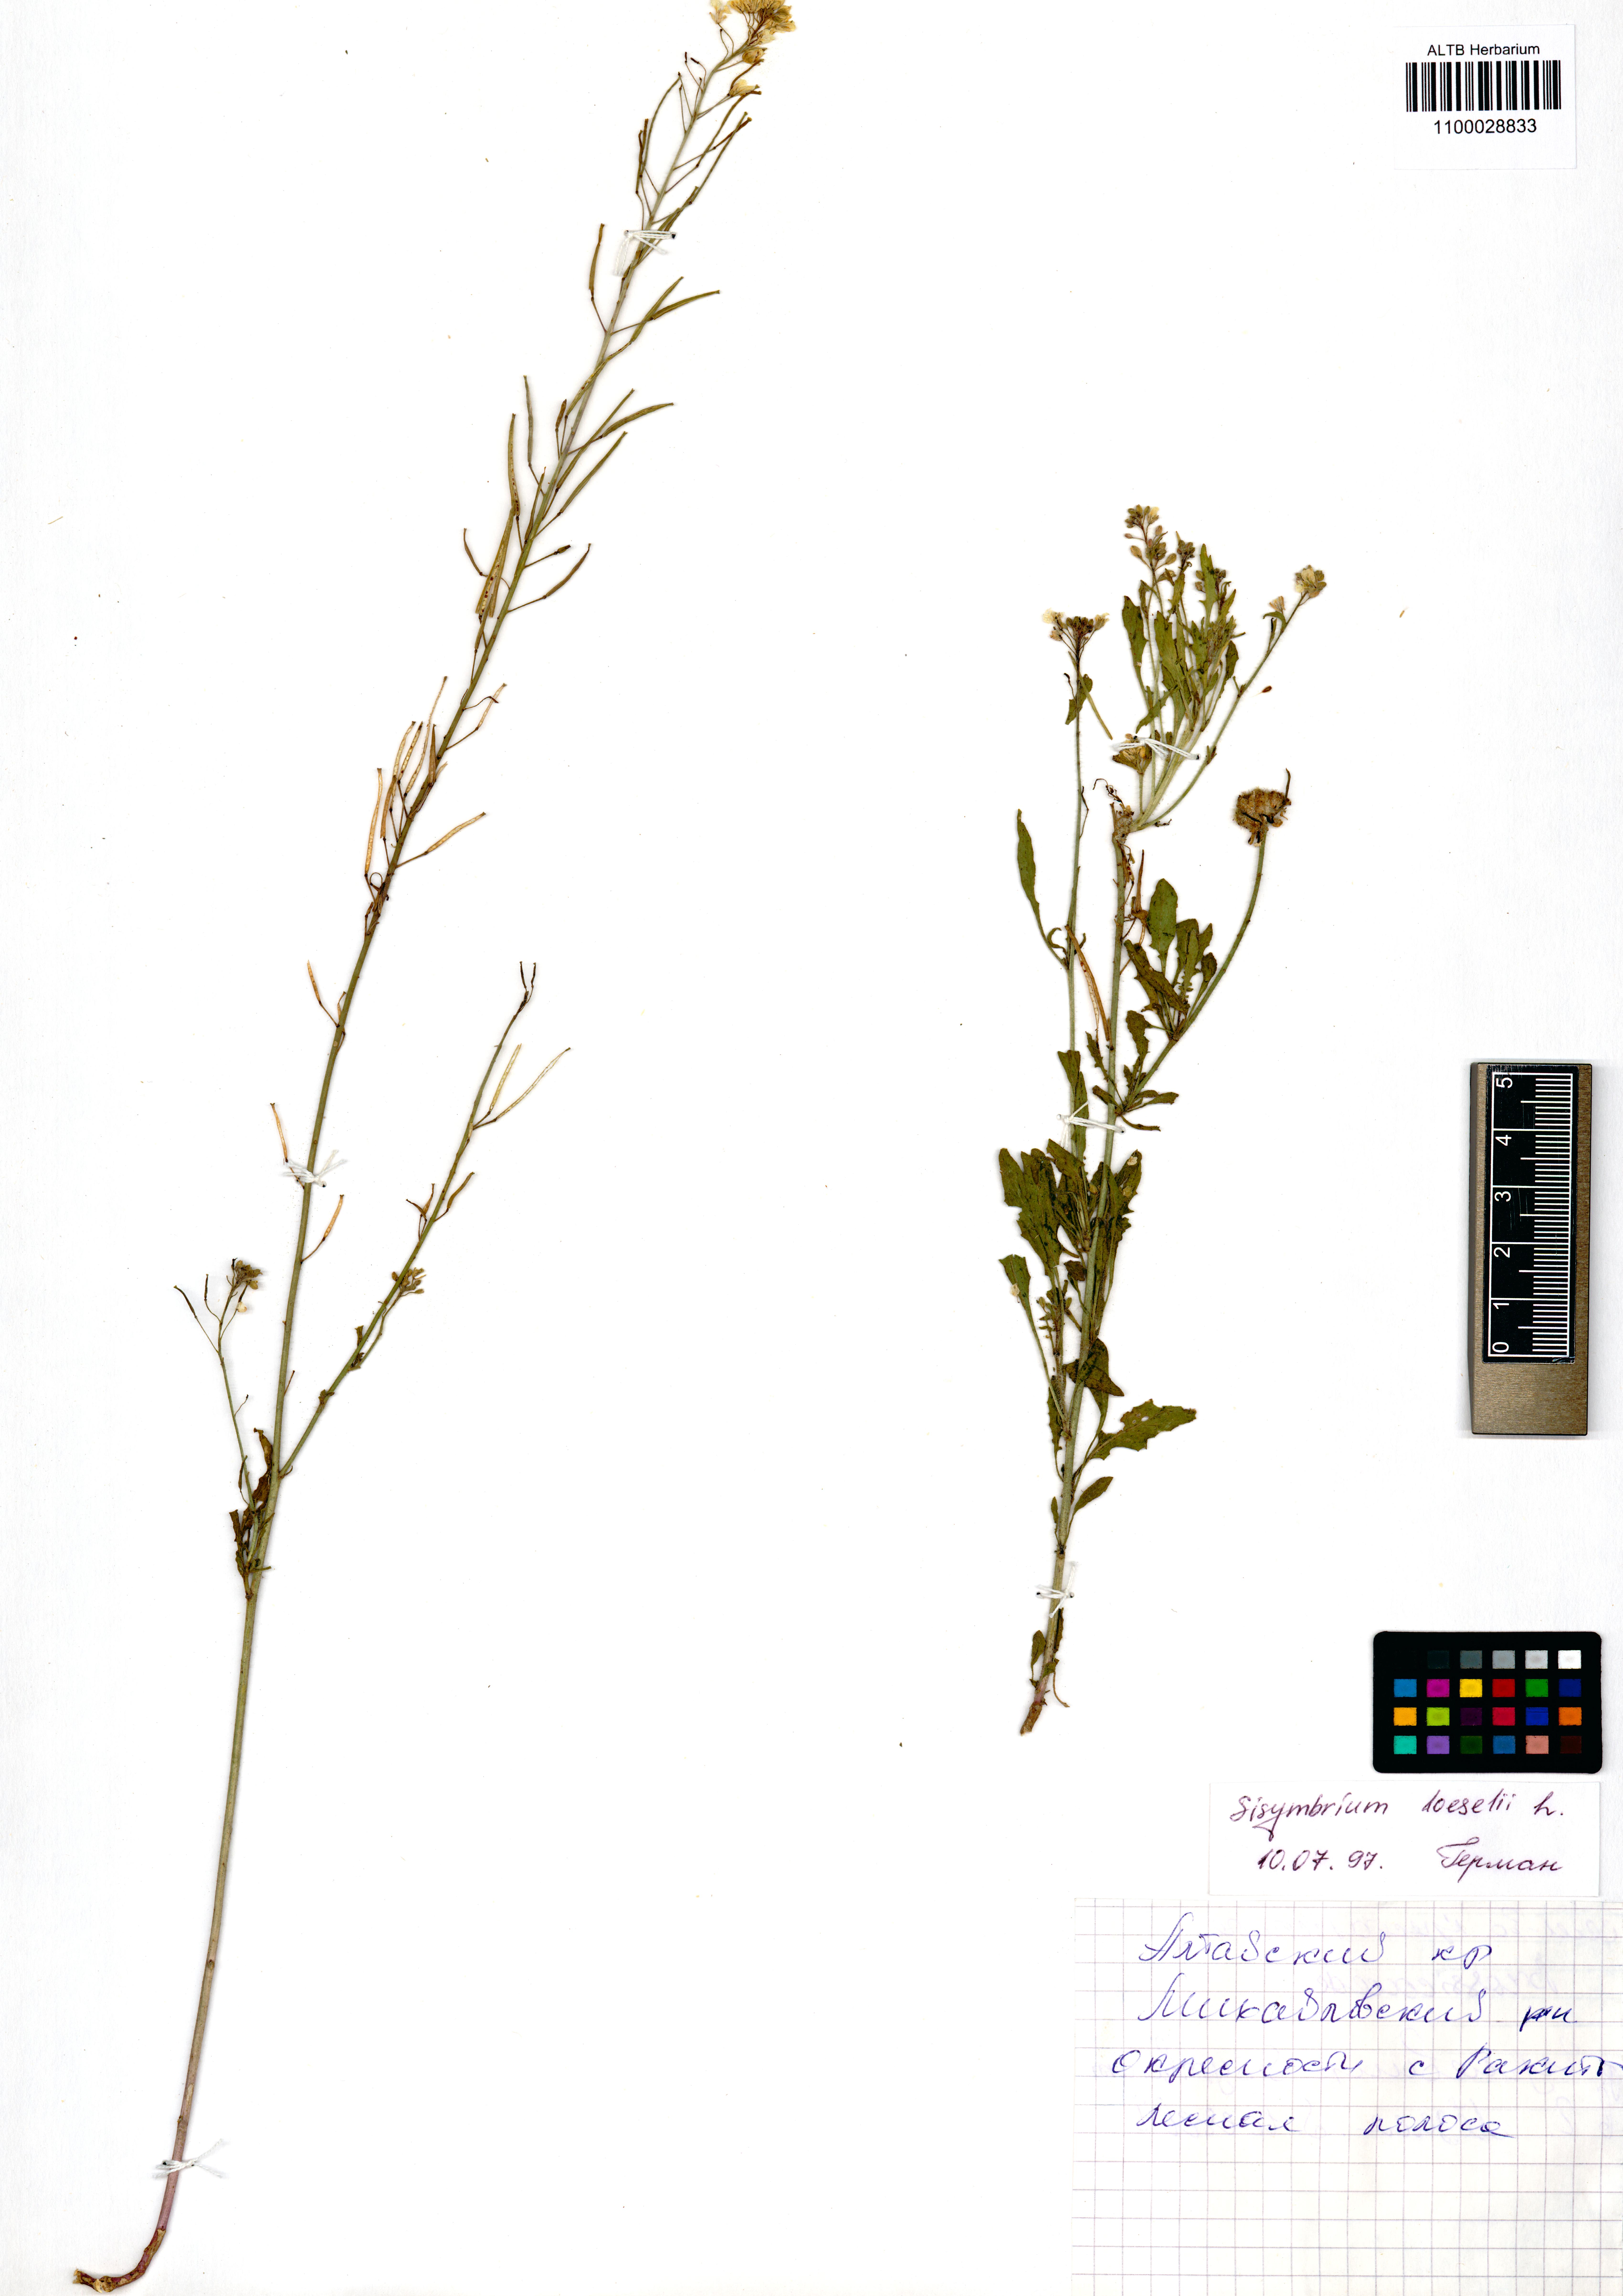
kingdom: Plantae
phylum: Tracheophyta
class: Magnoliopsida
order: Brassicales
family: Brassicaceae
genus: Sisymbrium
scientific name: Sisymbrium loeselii
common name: False london-rocket
